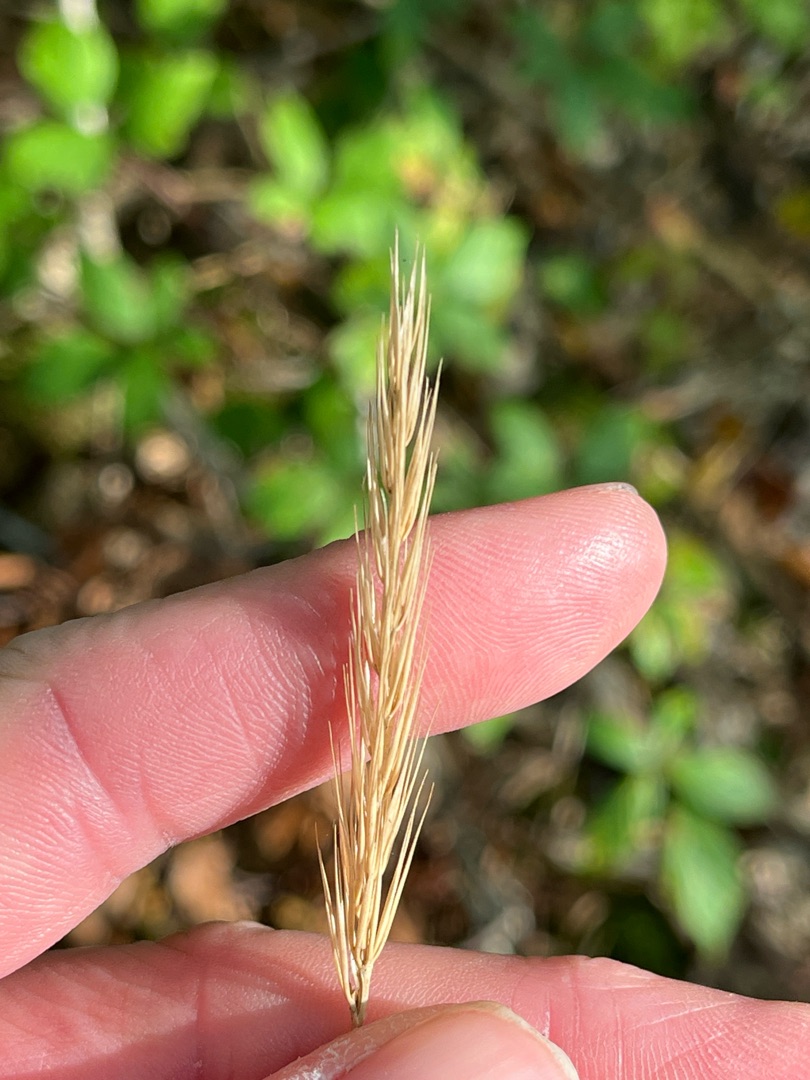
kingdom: Plantae
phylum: Tracheophyta
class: Liliopsida
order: Poales
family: Poaceae
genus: Hordelymus
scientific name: Hordelymus europaeus
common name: Skovbyg
